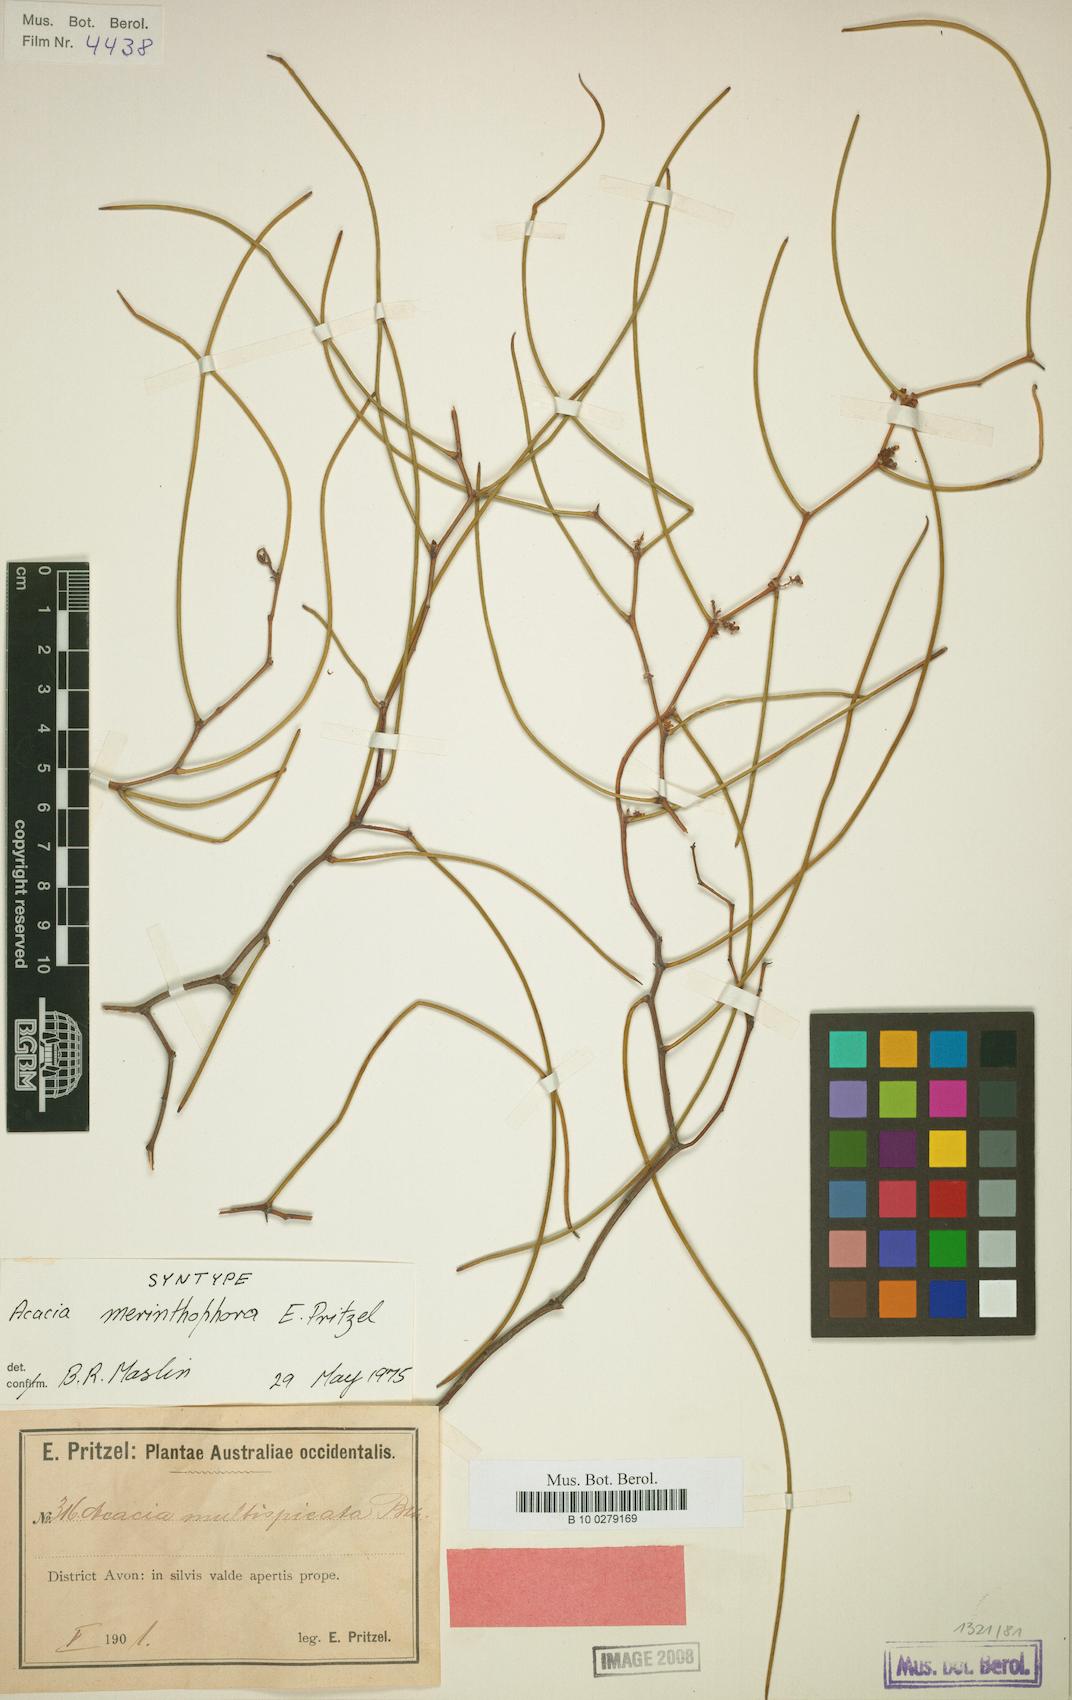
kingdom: Plantae
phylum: Tracheophyta
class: Magnoliopsida
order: Fabales
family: Fabaceae
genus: Acacia
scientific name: Acacia merinthophora
